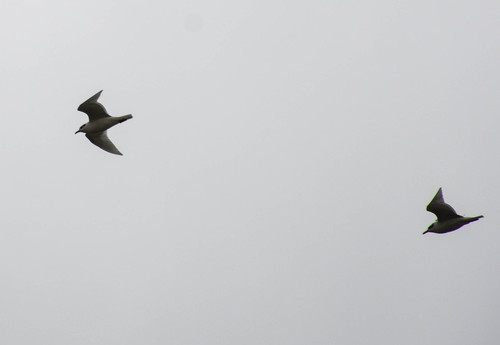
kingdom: Animalia
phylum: Chordata
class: Aves
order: Charadriiformes
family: Laridae
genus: Chroicocephalus
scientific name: Chroicocephalus ridibundus
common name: Black-headed gull
